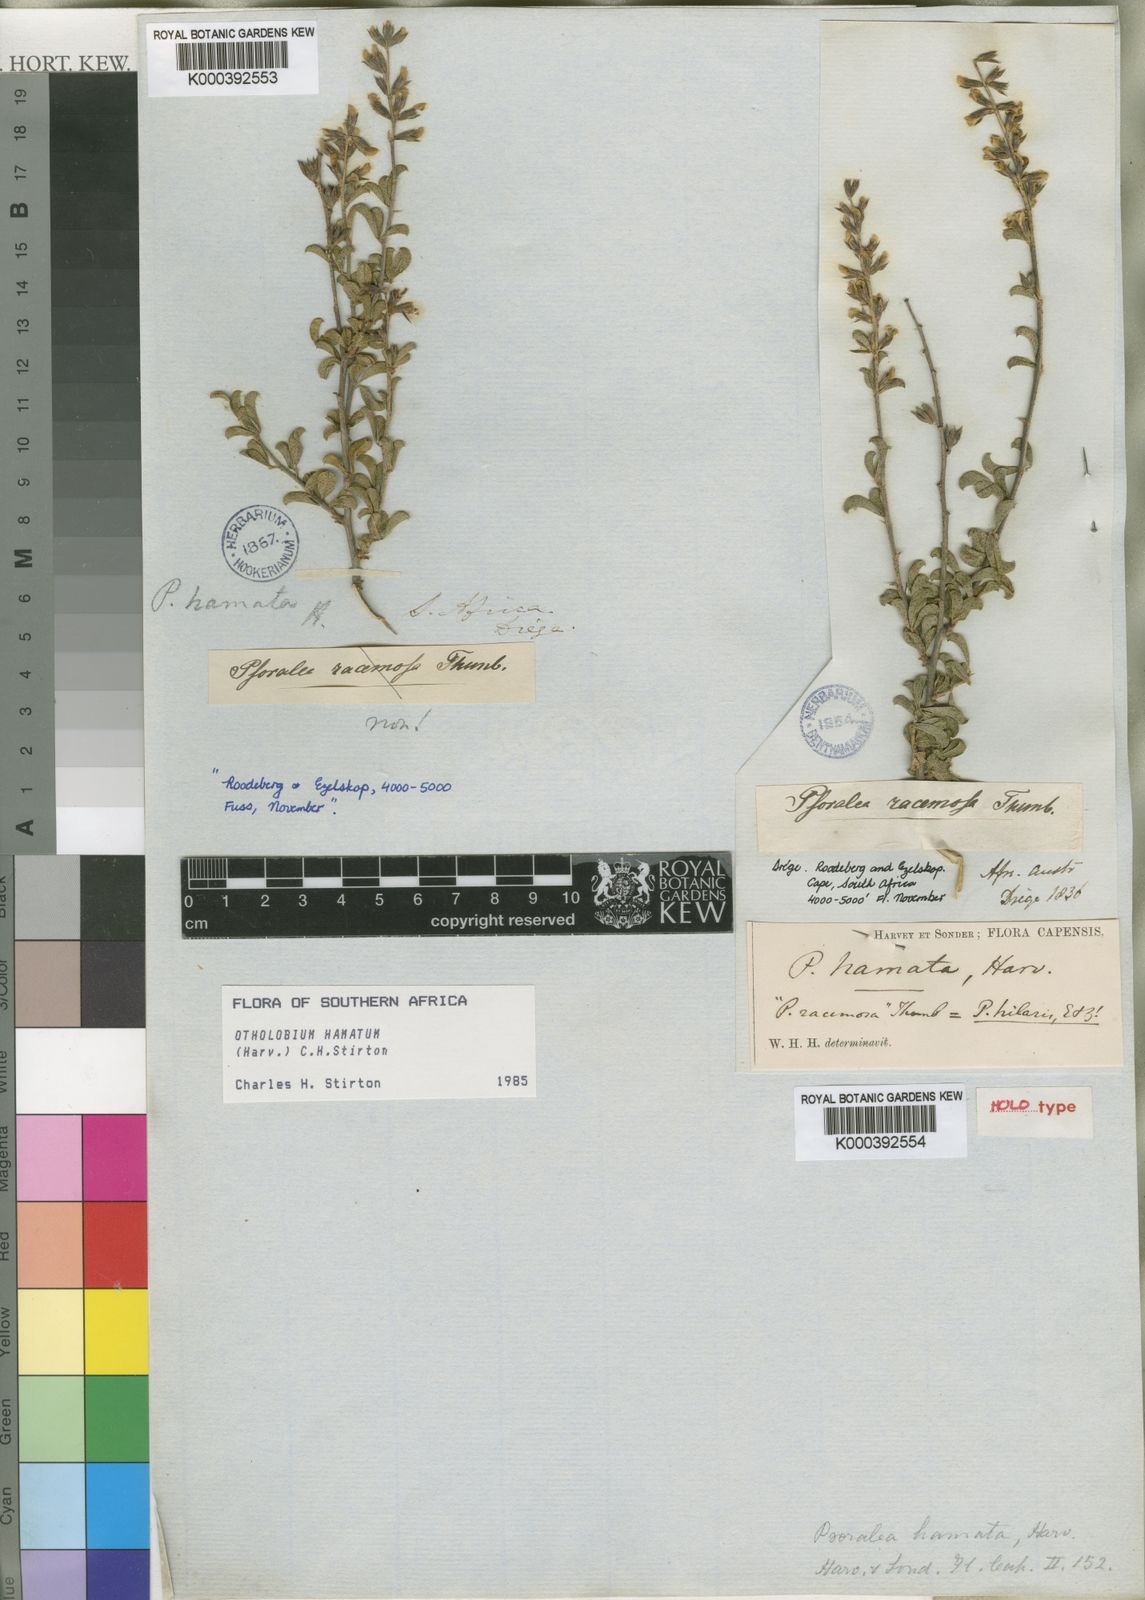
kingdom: Plantae
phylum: Tracheophyta
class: Magnoliopsida
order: Fabales
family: Fabaceae
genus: Psoralea
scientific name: Psoralea hamata
